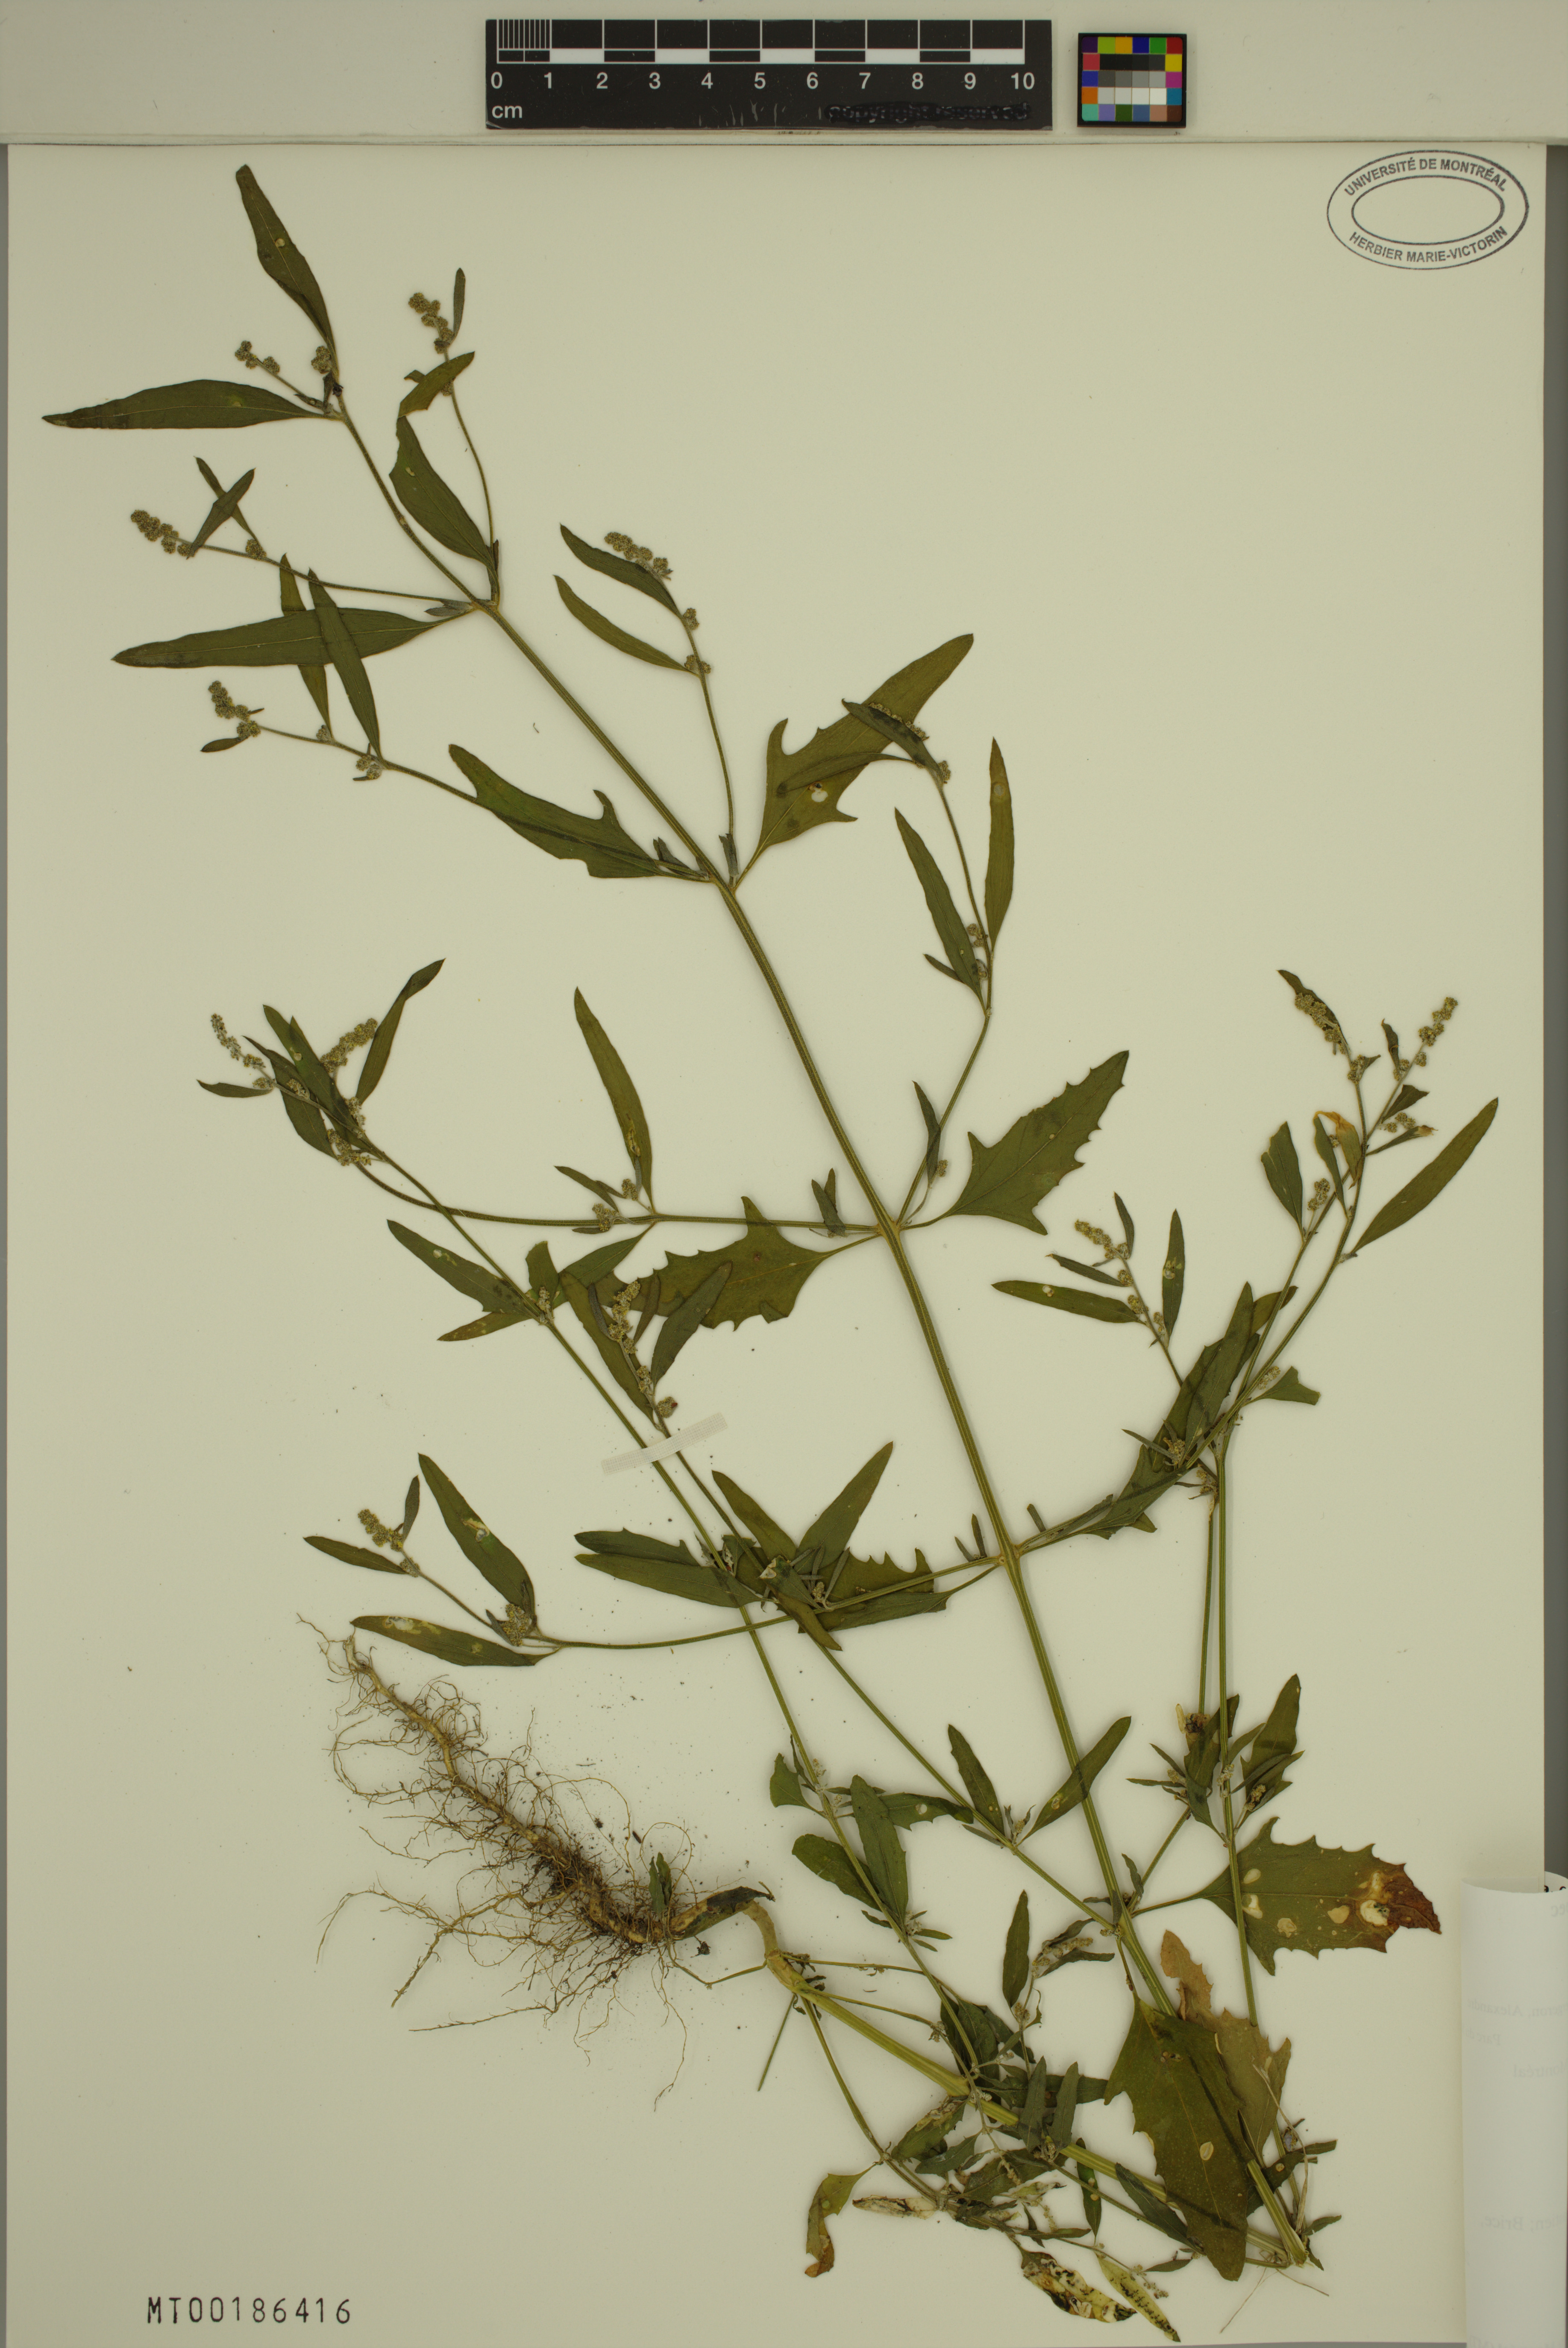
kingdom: Plantae
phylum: Tracheophyta
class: Magnoliopsida
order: Caryophyllales
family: Amaranthaceae
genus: Chenopodium
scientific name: Chenopodium album
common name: Fat-hen
